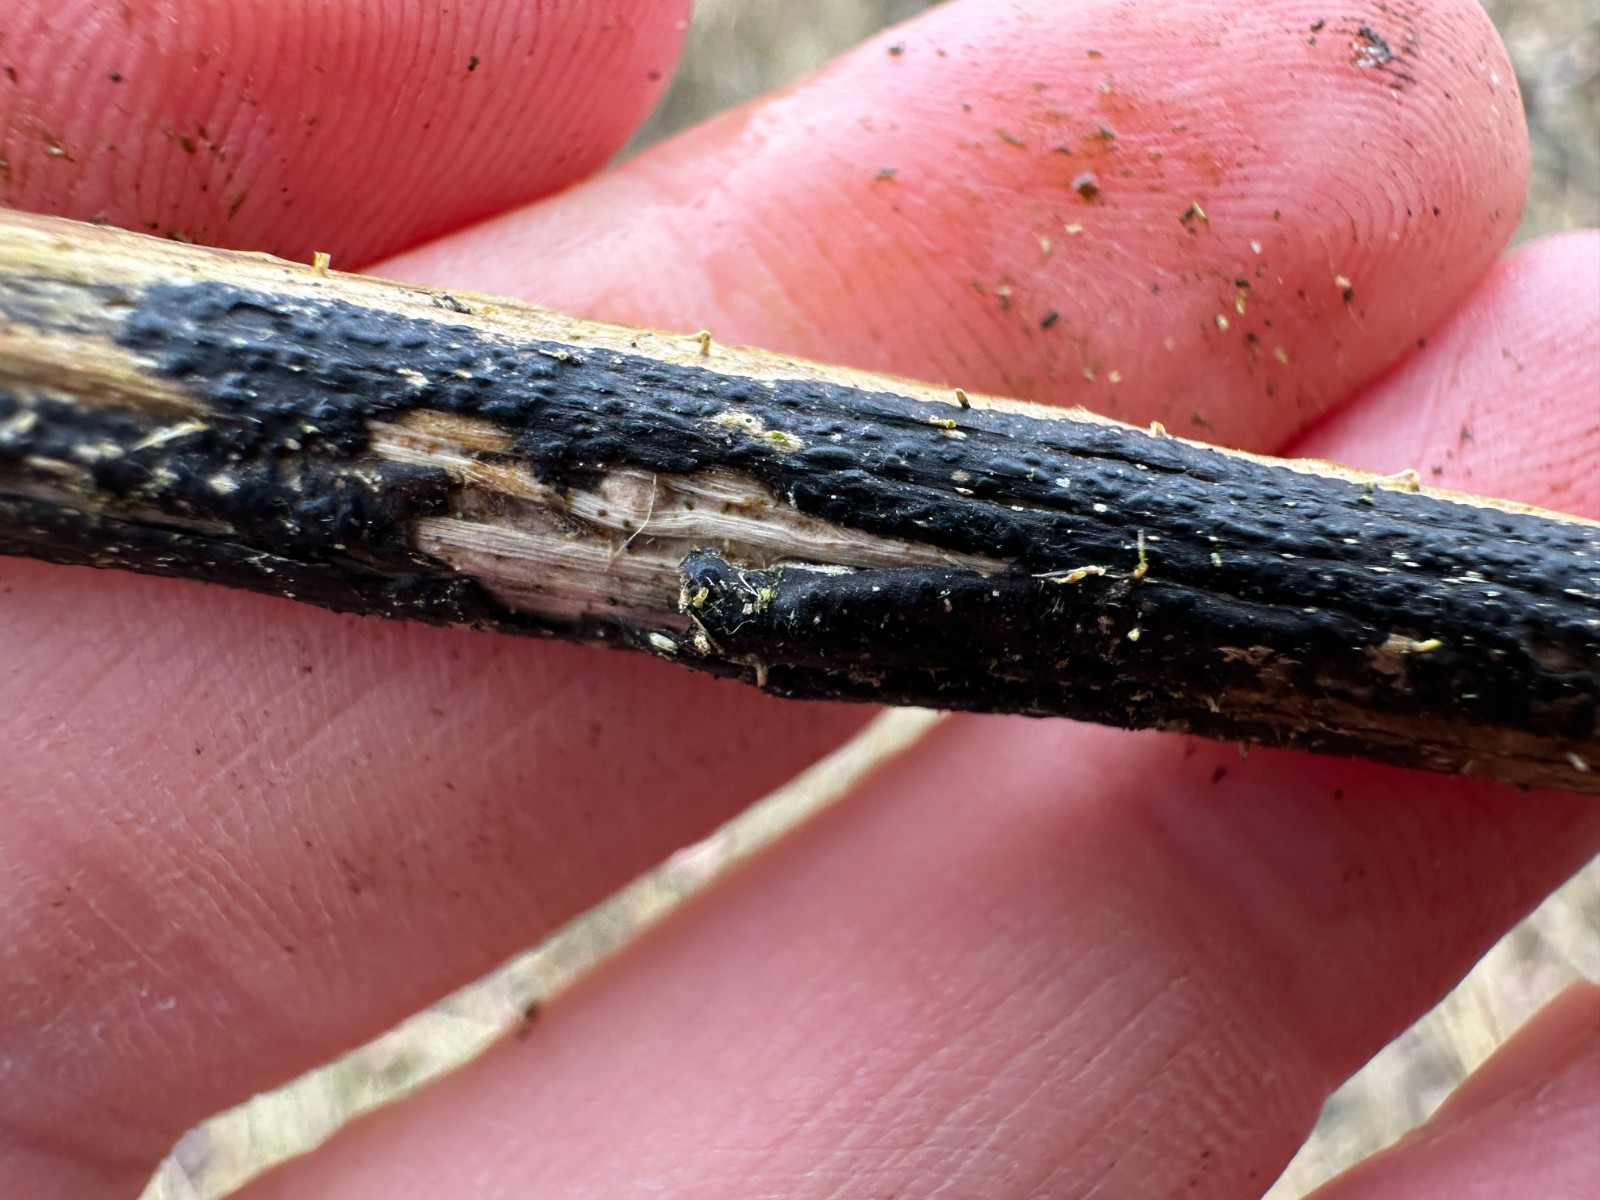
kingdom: Fungi
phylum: Ascomycota
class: Sordariomycetes
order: Diaporthales
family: Diaporthaceae
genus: Diaporthopsis
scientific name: Diaporthopsis urticae
